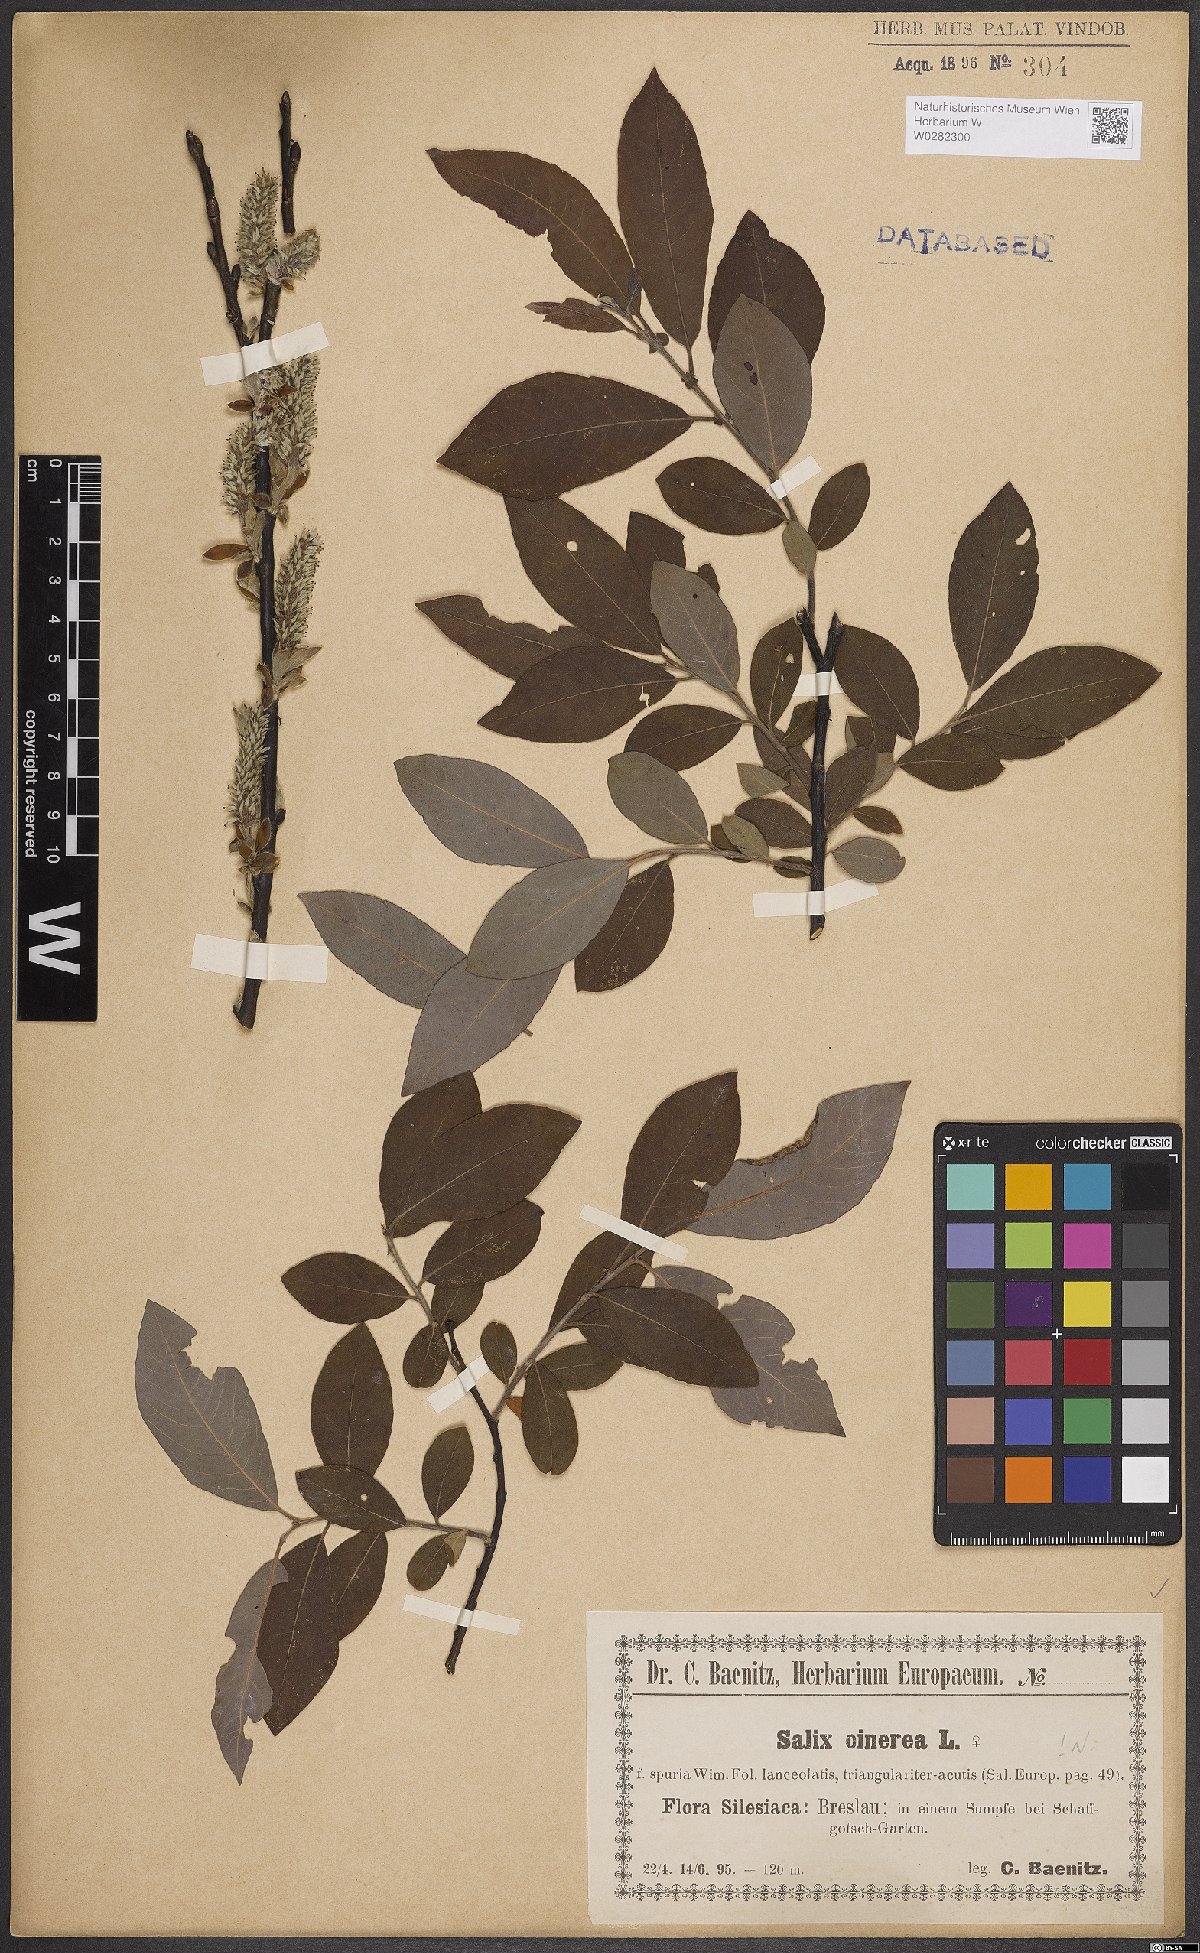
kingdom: Plantae
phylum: Tracheophyta
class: Magnoliopsida
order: Malpighiales
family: Salicaceae
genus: Salix
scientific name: Salix cinerea
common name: Common sallow
